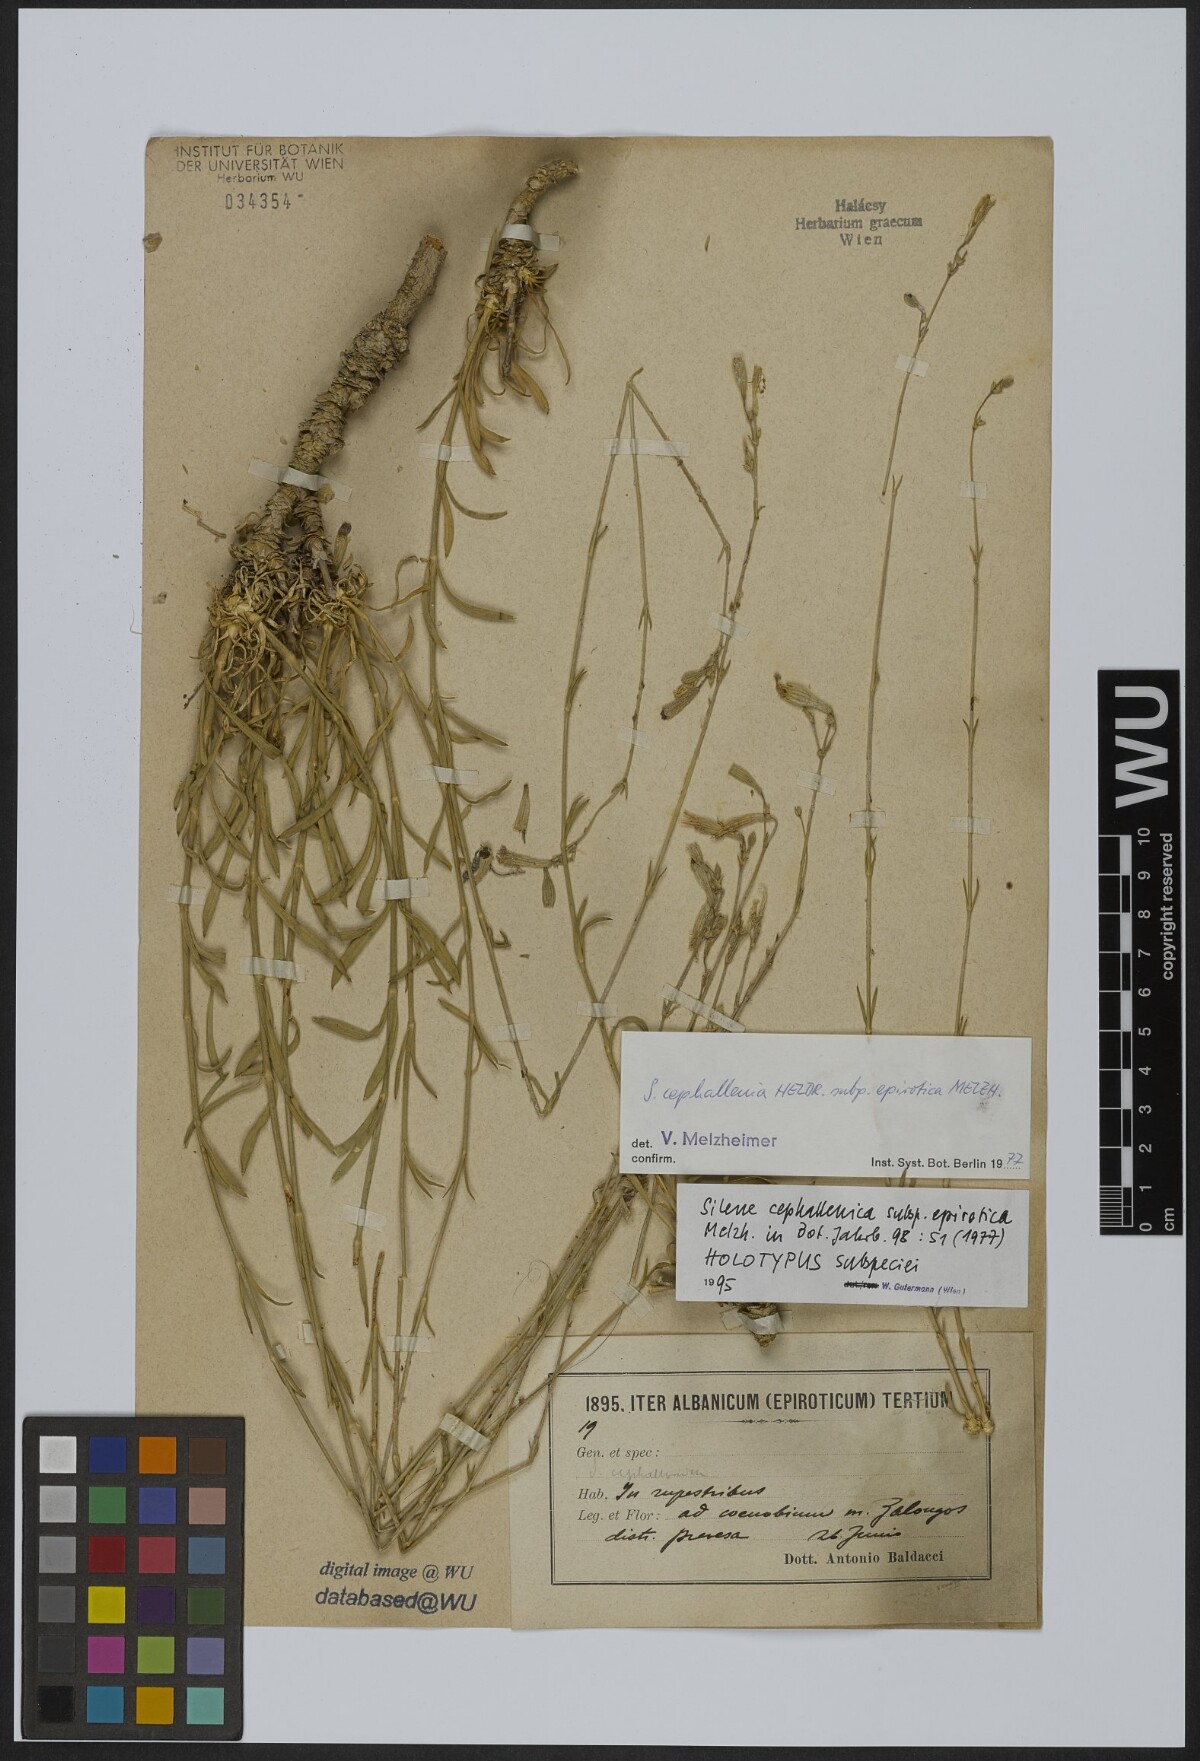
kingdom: Plantae
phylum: Tracheophyta
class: Magnoliopsida
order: Caryophyllales
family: Caryophyllaceae
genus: Silene
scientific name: Silene cephallenia
